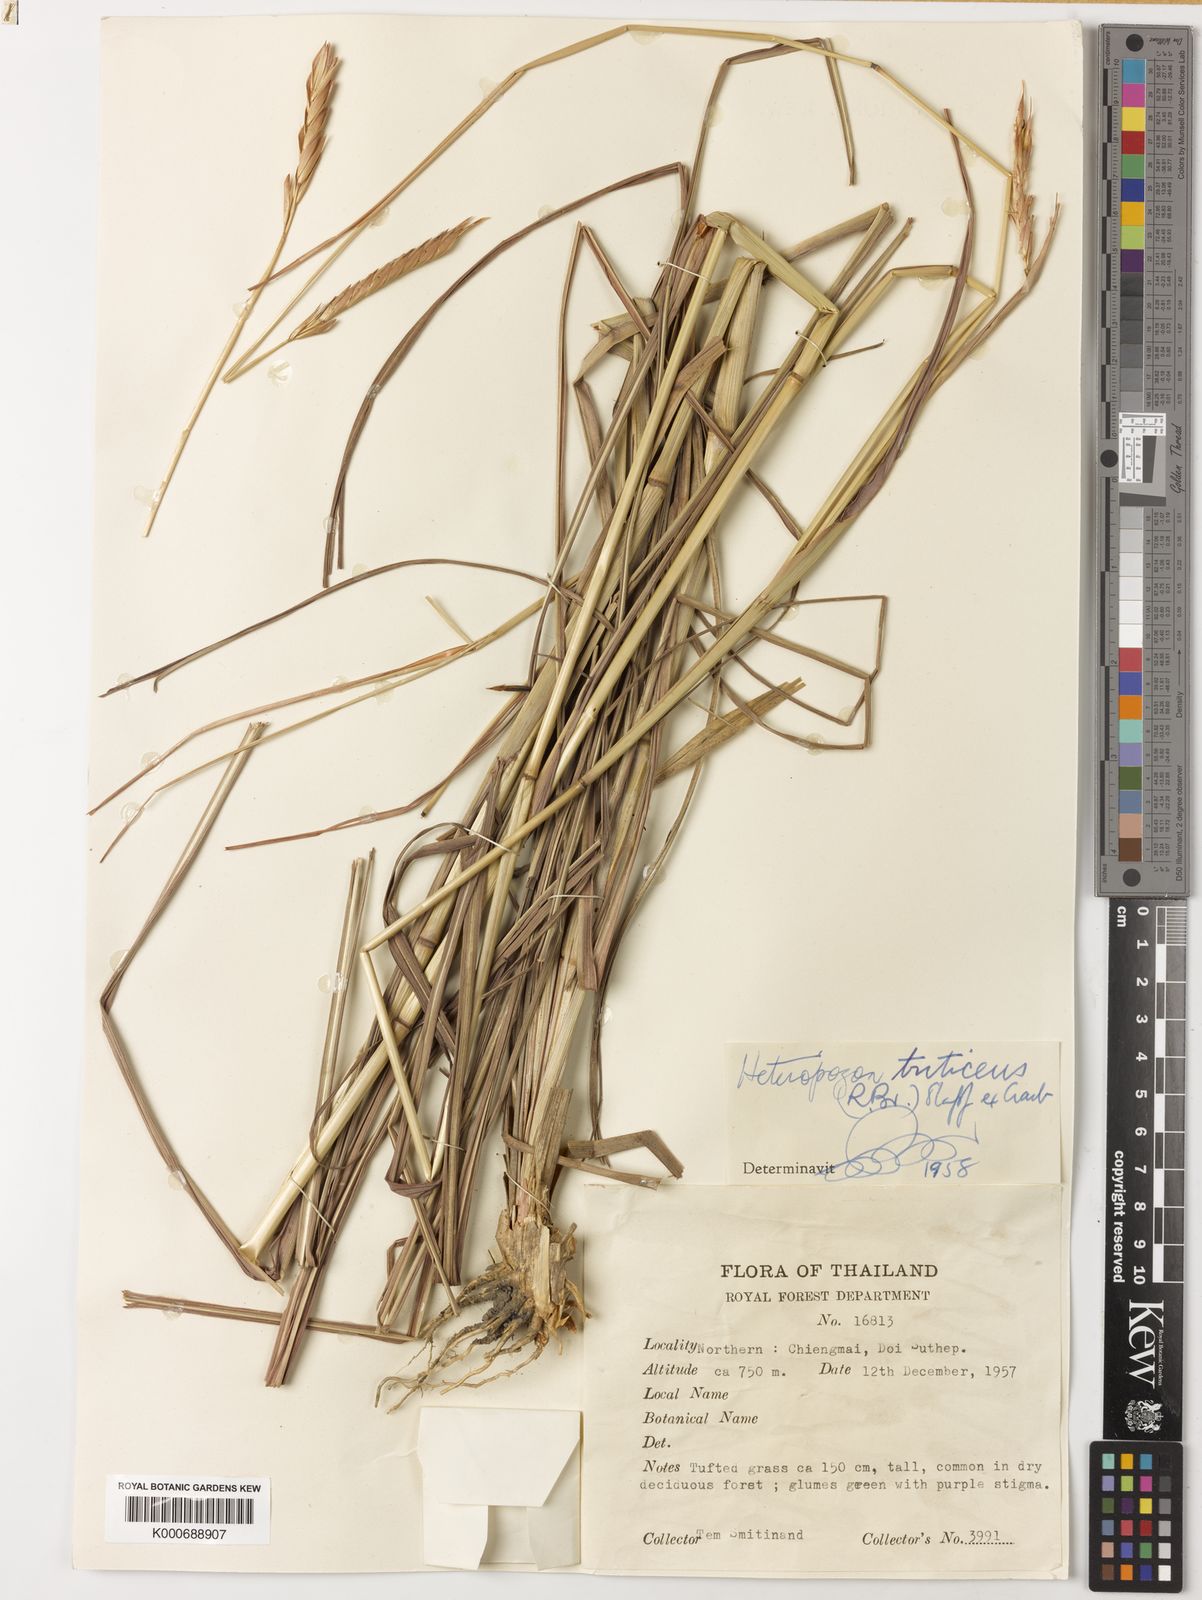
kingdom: Plantae
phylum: Tracheophyta
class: Liliopsida
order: Poales
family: Poaceae
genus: Heteropogon
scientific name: Heteropogon triticeus
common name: Sugar grass
